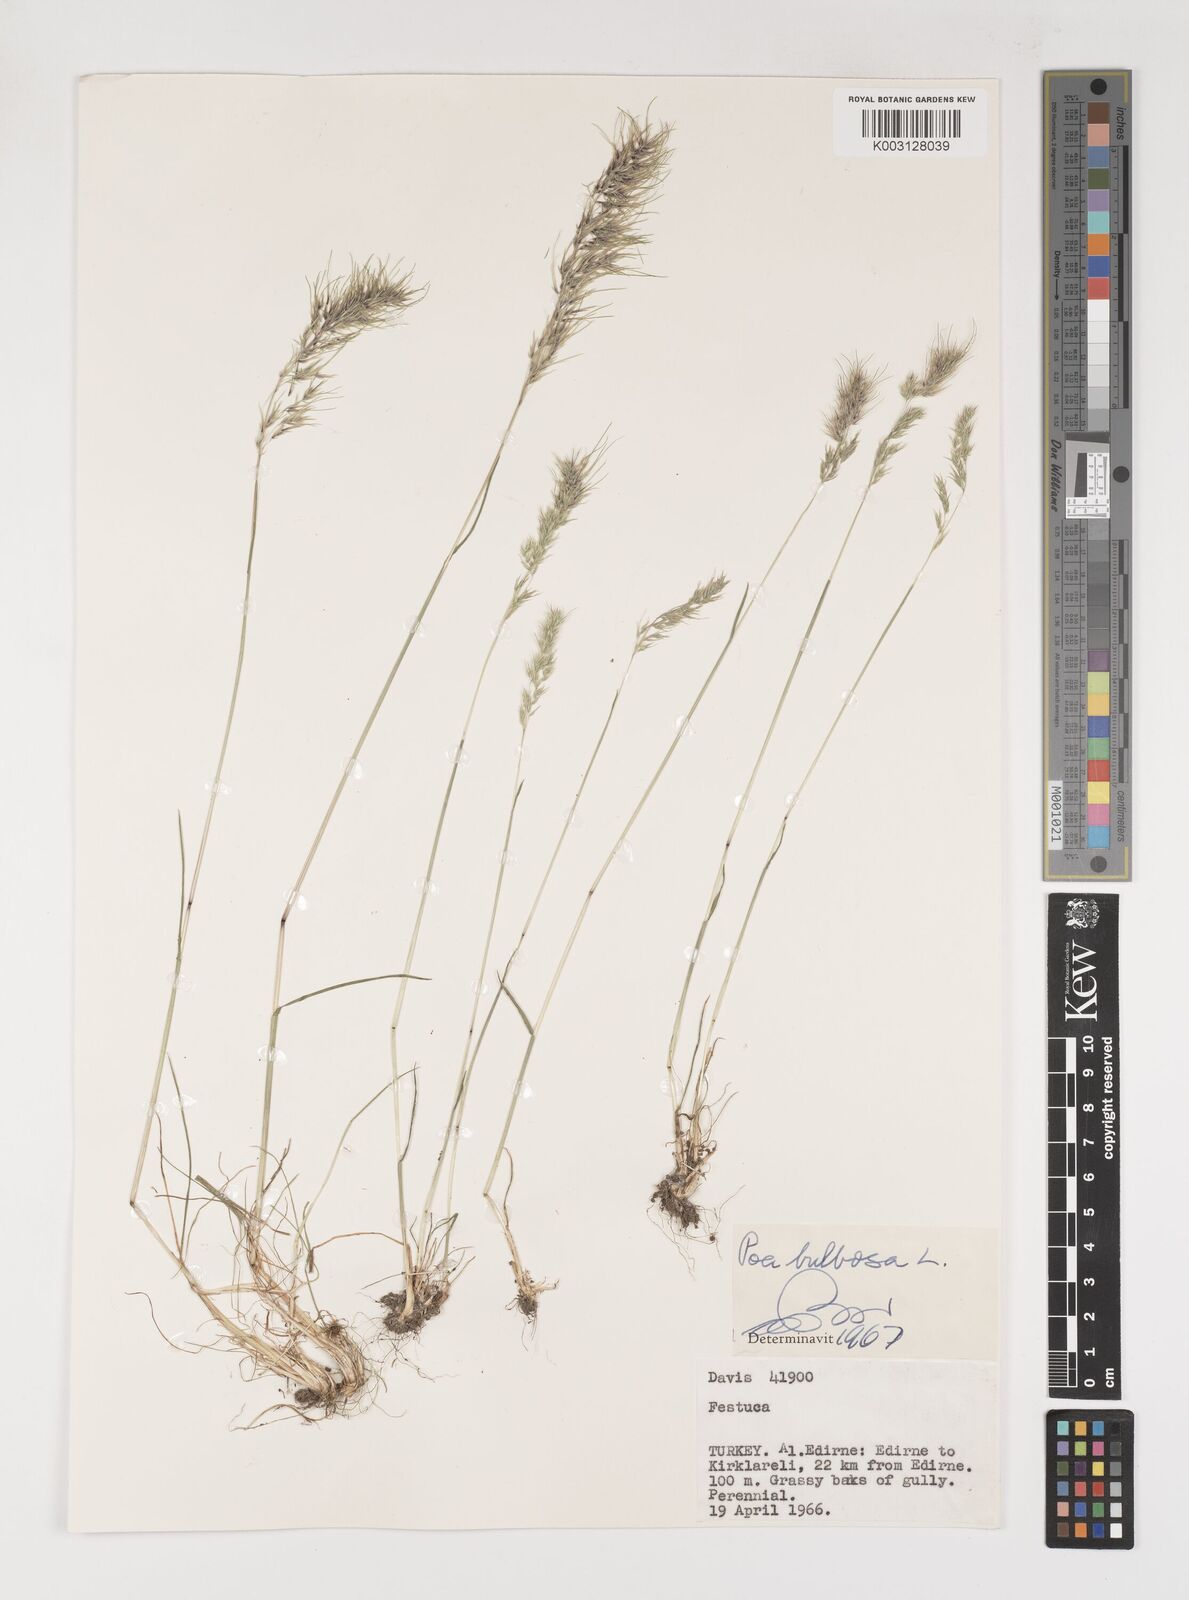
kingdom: Plantae
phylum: Tracheophyta
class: Liliopsida
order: Poales
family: Poaceae
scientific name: Poaceae
